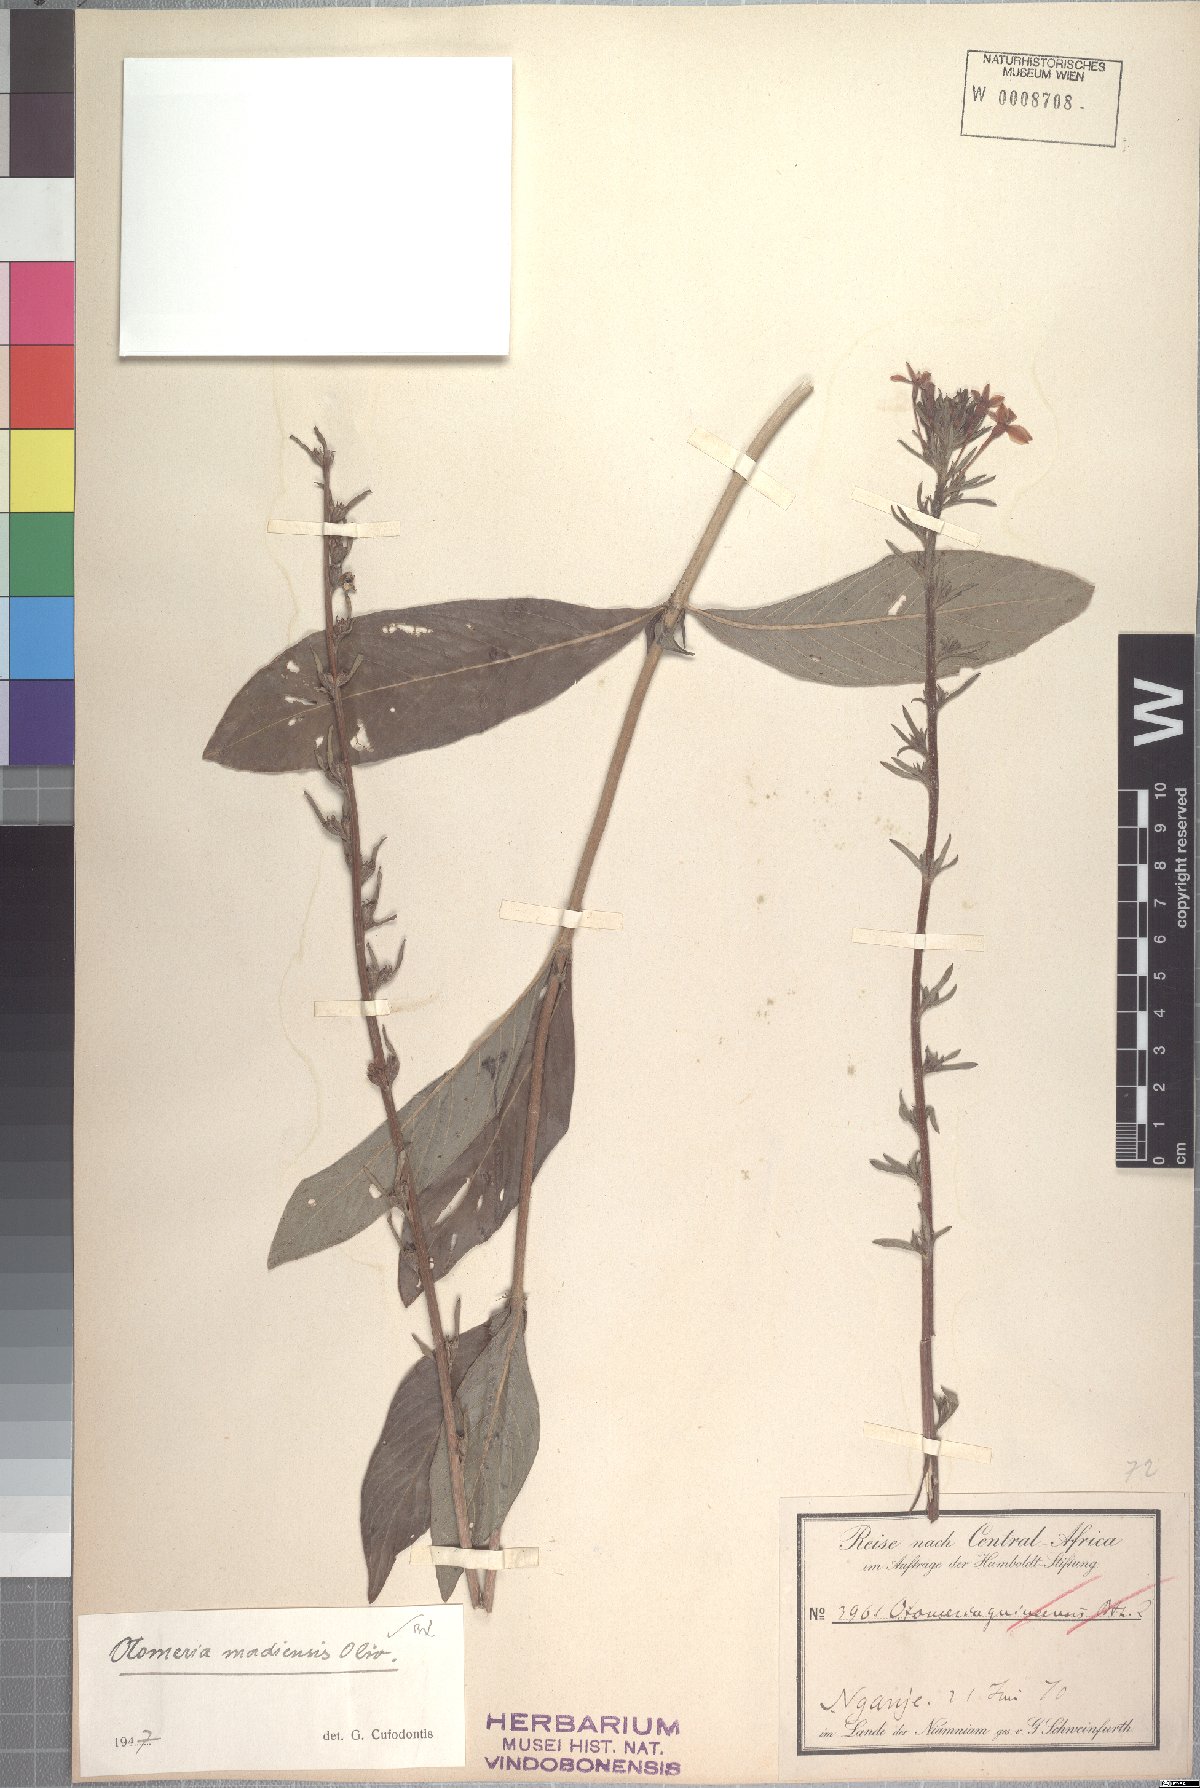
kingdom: Plantae
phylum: Tracheophyta
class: Magnoliopsida
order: Gentianales
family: Rubiaceae
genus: Otomeria
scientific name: Otomeria madiensis
